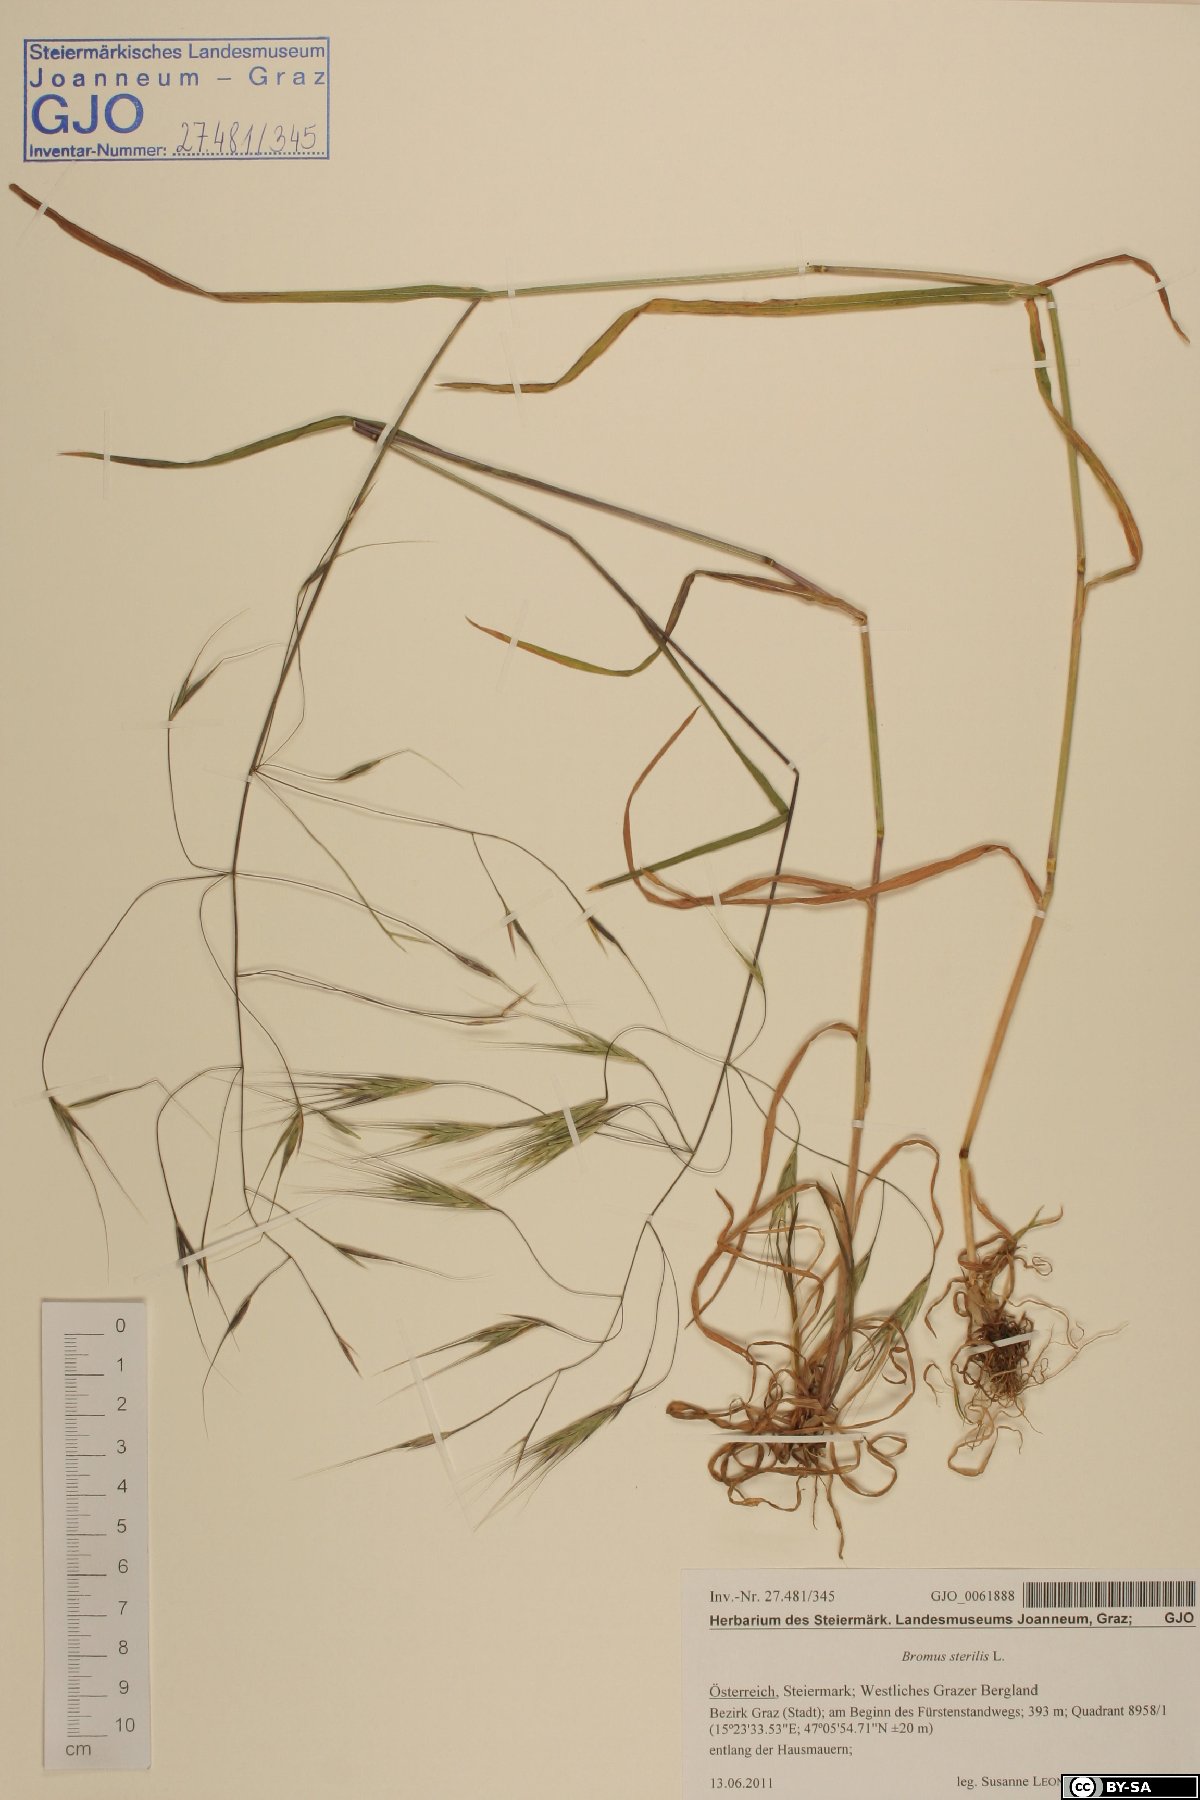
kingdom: Plantae
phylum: Tracheophyta
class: Liliopsida
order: Poales
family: Poaceae
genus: Bromus
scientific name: Bromus sterilis
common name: Poverty brome
